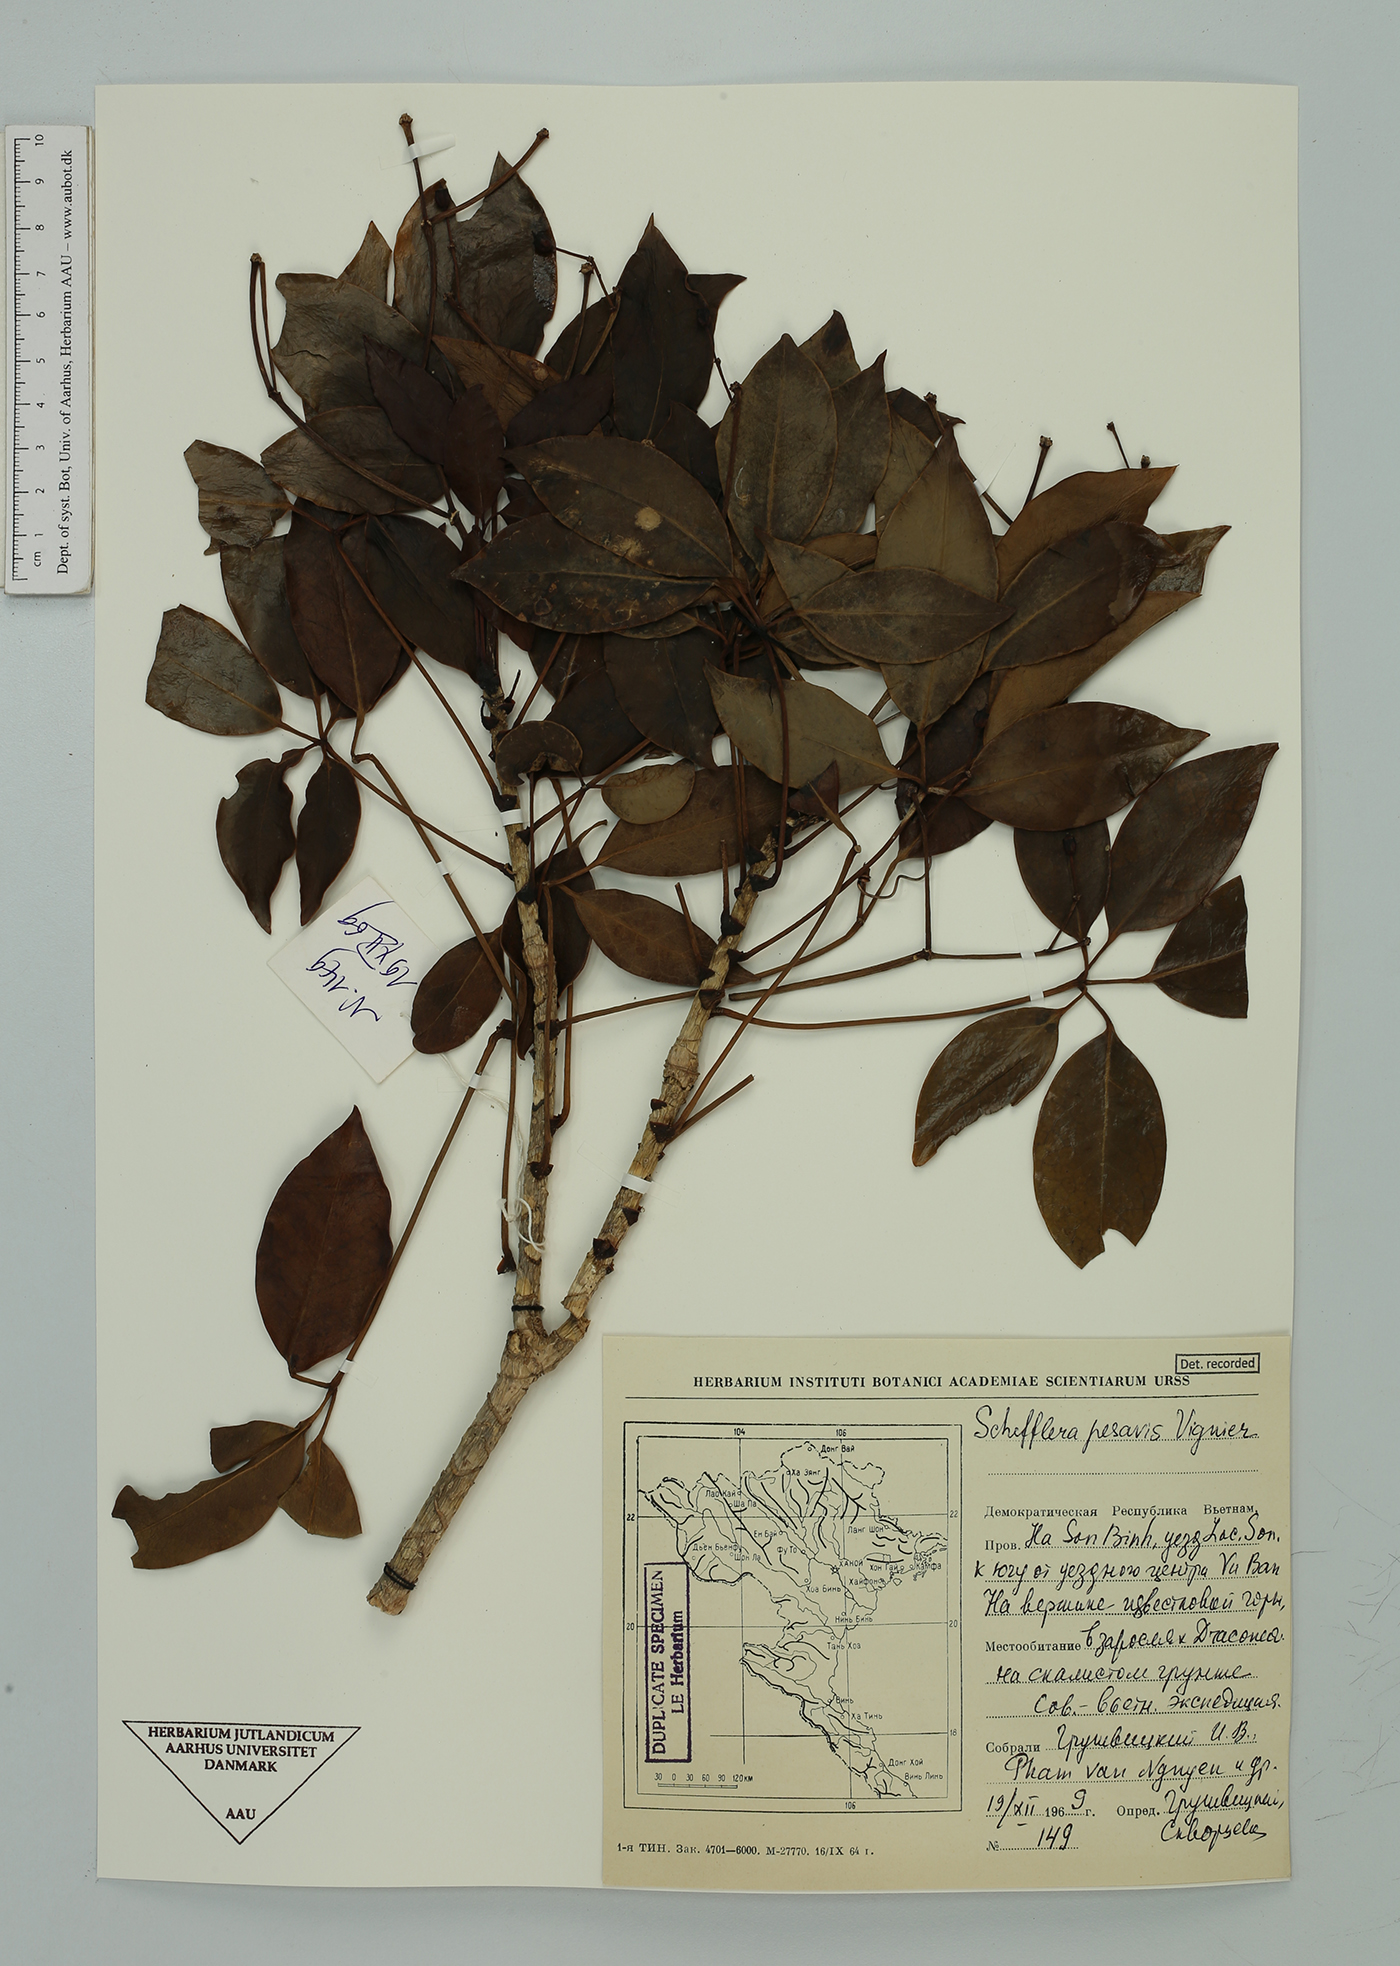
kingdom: Plantae
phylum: Tracheophyta
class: Magnoliopsida
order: Apiales
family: Araliaceae
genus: Heptapleurum
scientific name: Heptapleurum pes-avis
